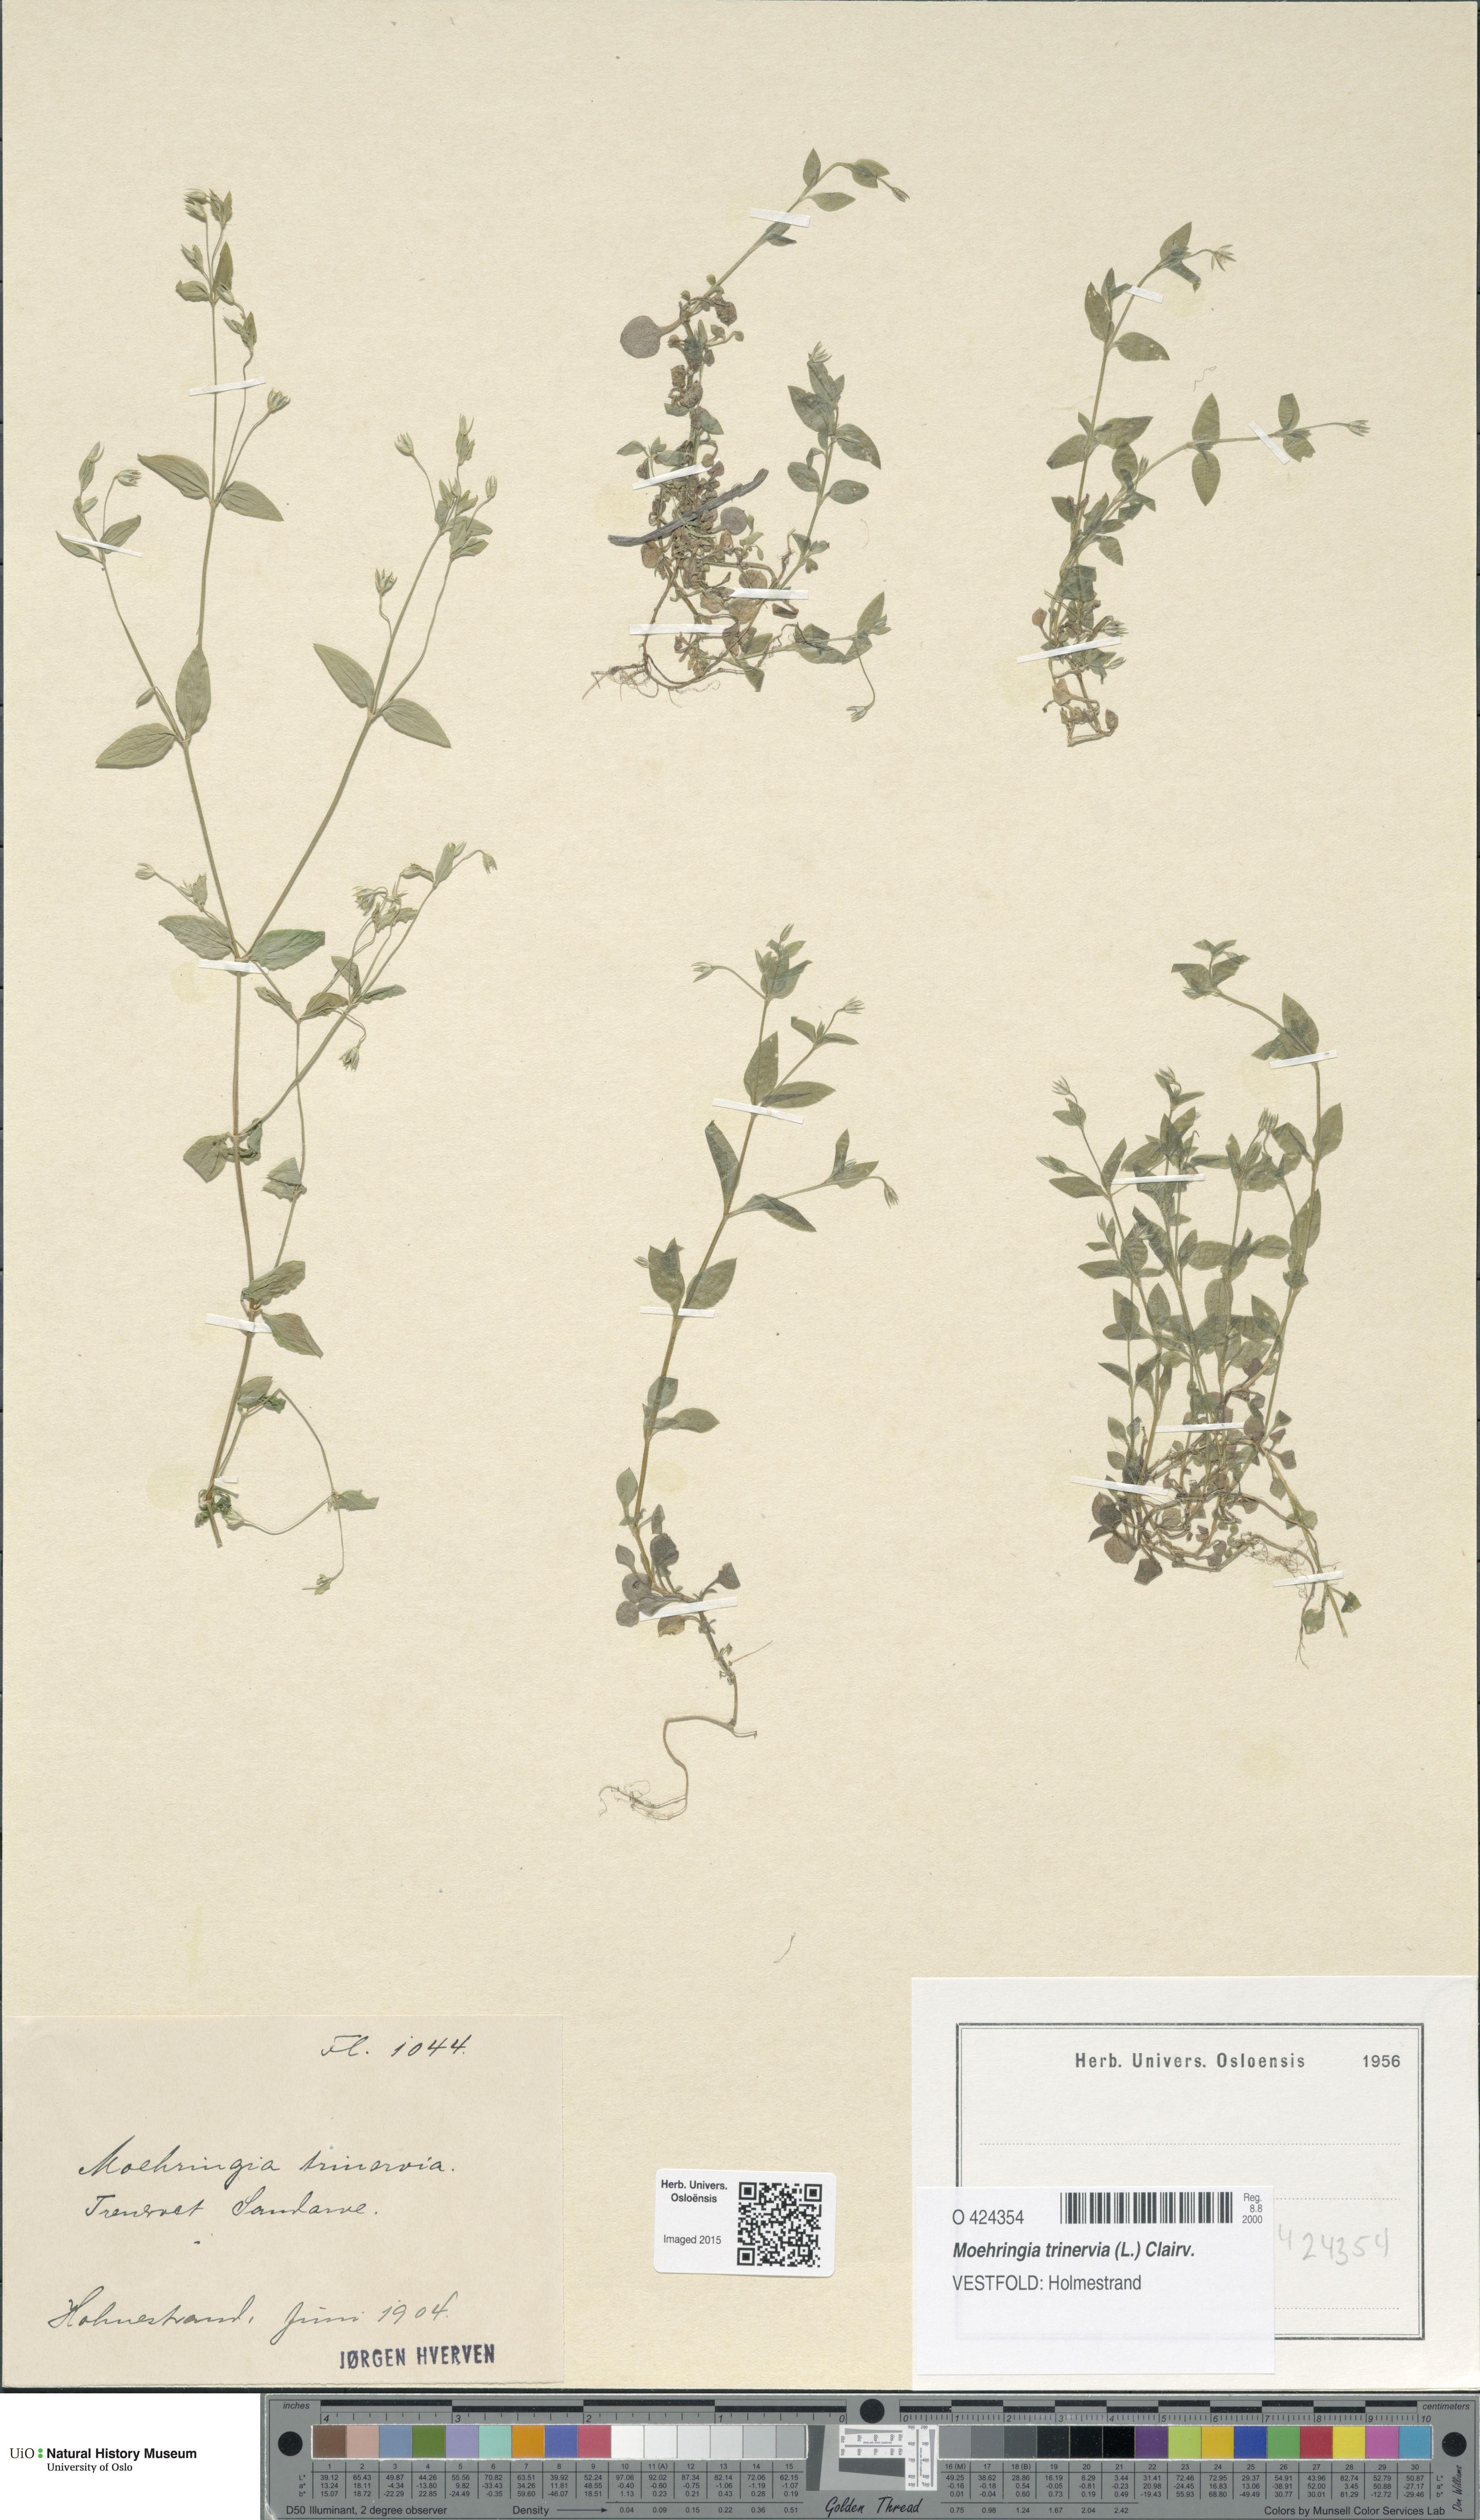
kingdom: Plantae
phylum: Tracheophyta
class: Magnoliopsida
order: Caryophyllales
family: Caryophyllaceae
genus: Moehringia
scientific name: Moehringia trinervia
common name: Three-nerved sandwort
